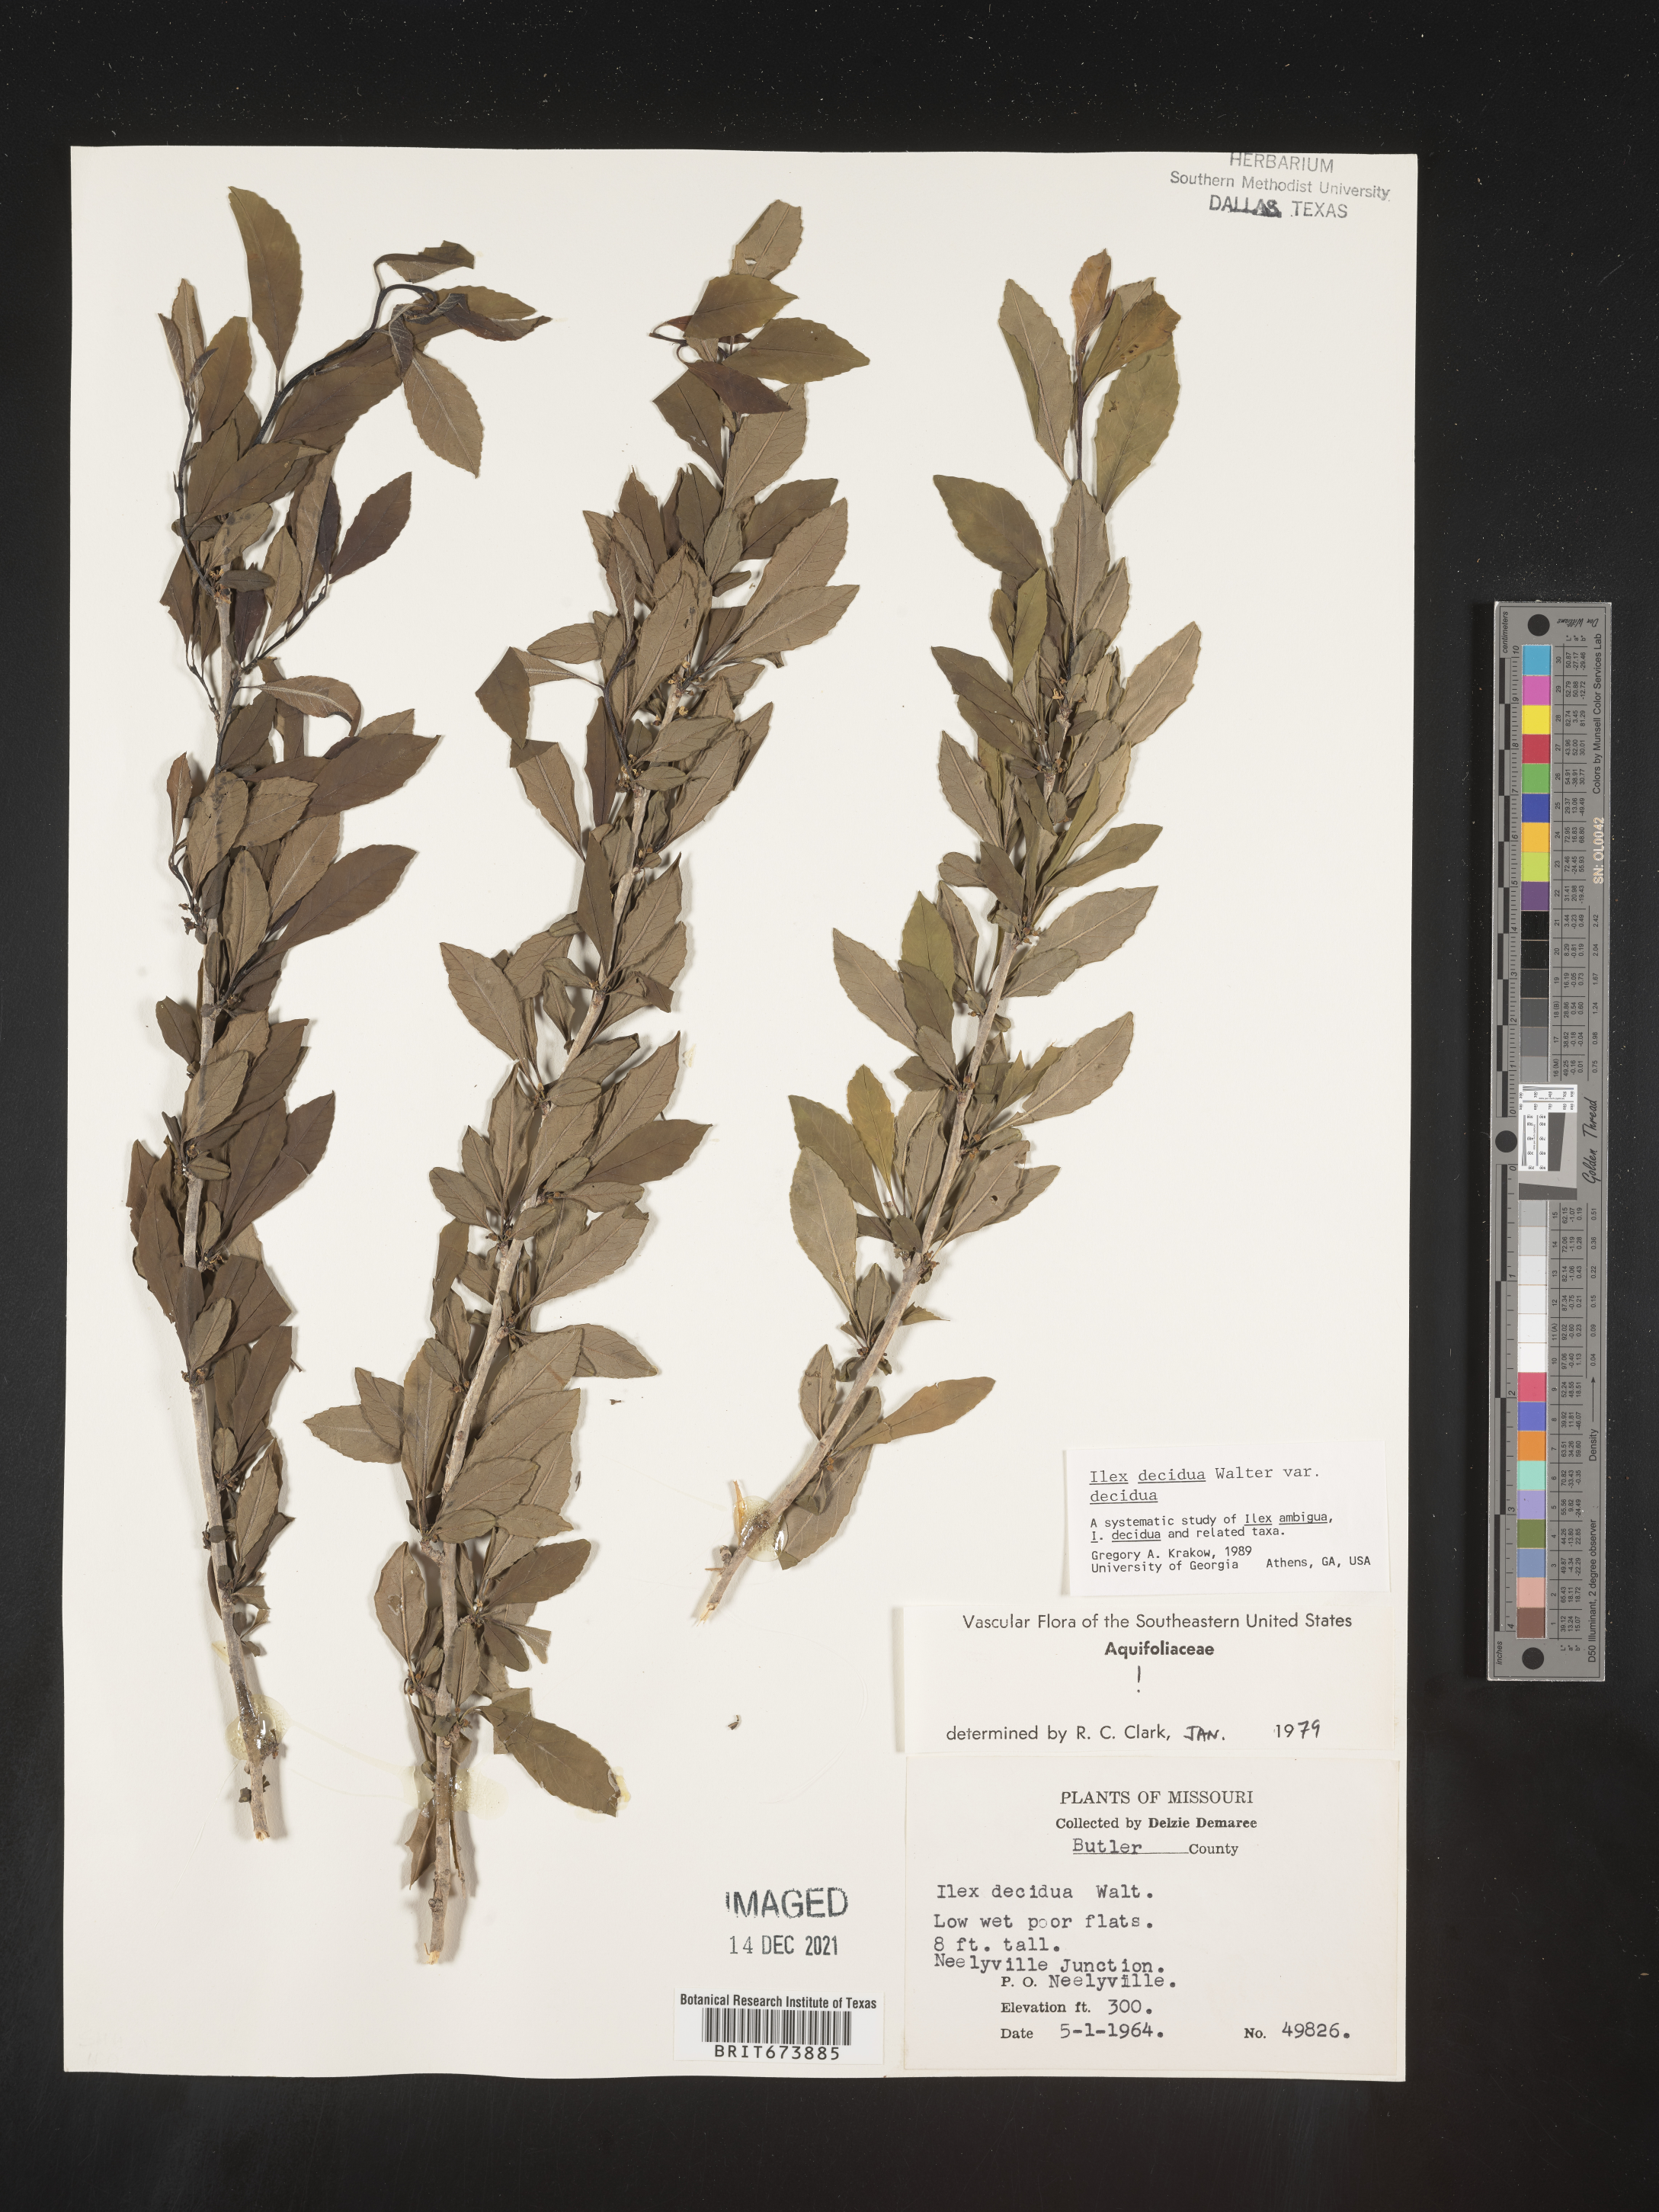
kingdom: Plantae
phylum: Tracheophyta
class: Magnoliopsida
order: Aquifoliales
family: Aquifoliaceae
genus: Ilex
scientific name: Ilex decidua
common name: Possum-haw
